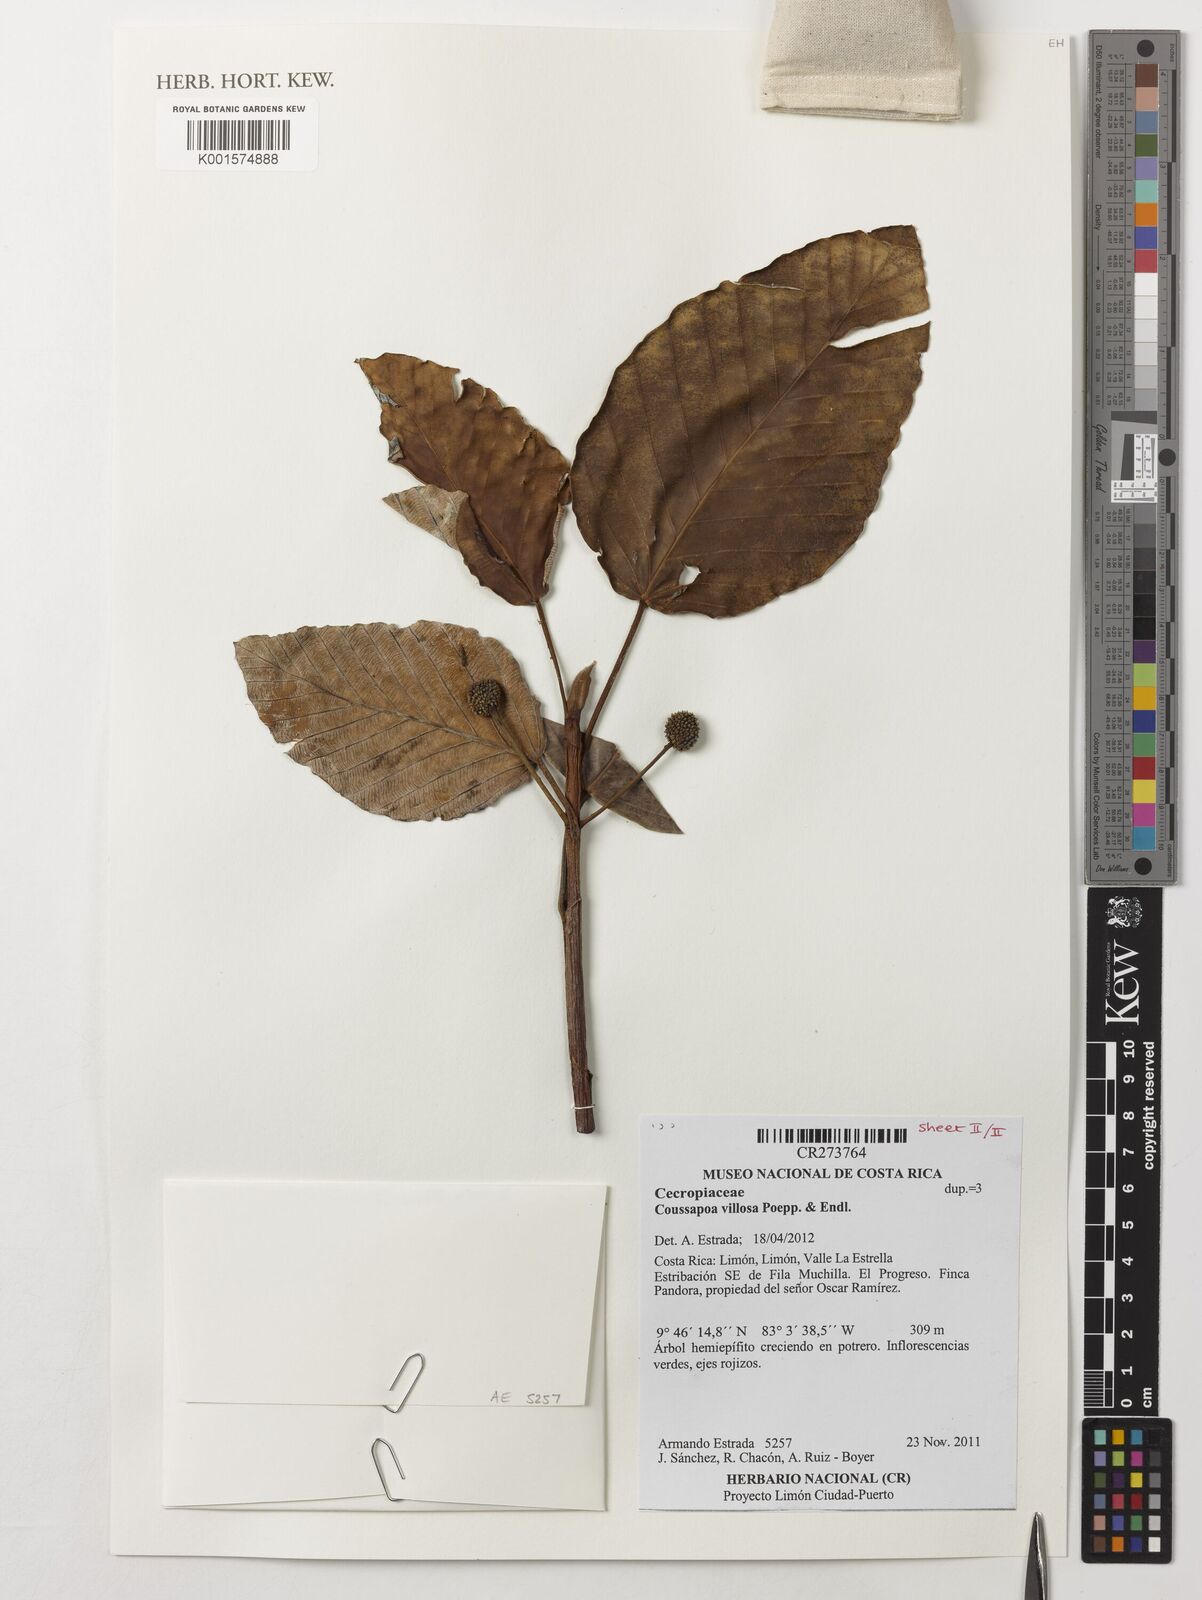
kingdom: Plantae
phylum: Tracheophyta
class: Magnoliopsida
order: Rosales
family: Urticaceae
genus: Coussapoa
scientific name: Coussapoa villosa
